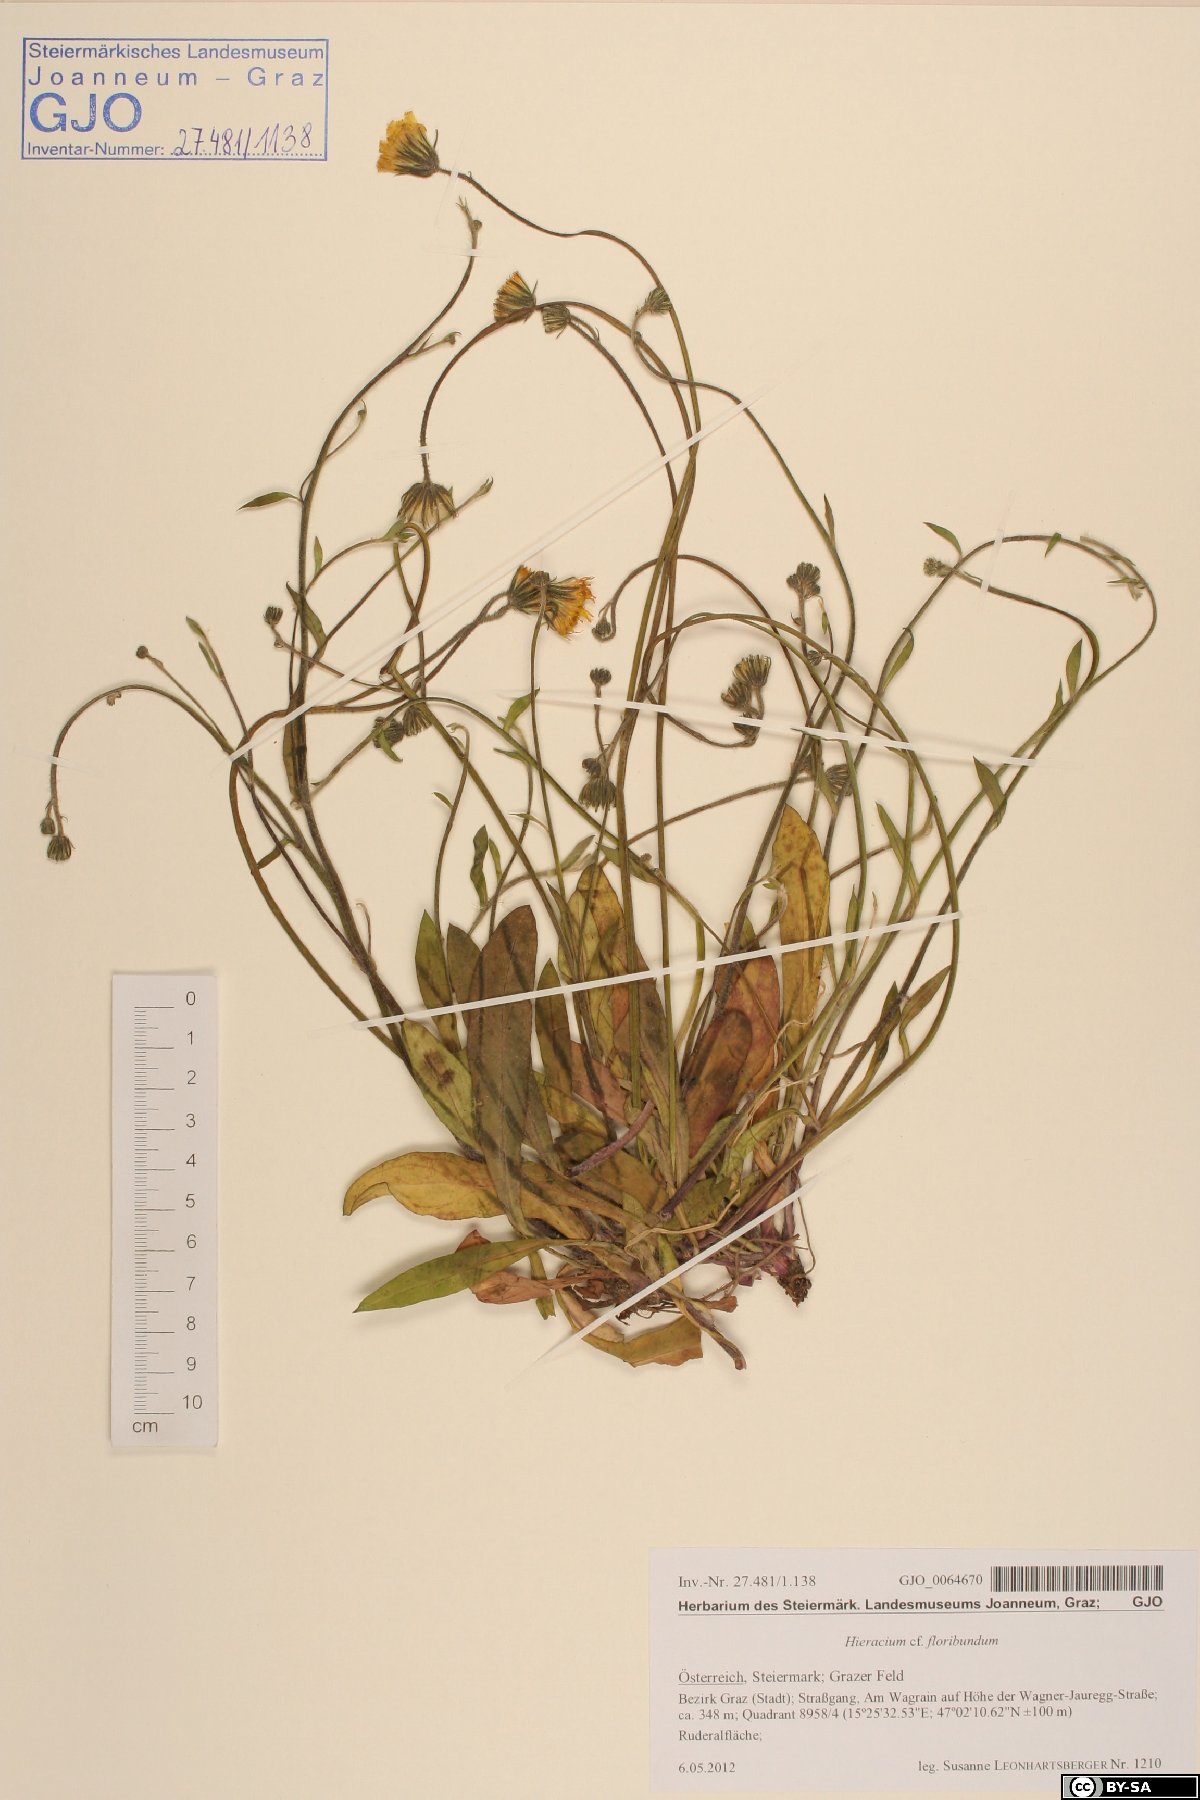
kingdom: Plantae
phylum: Tracheophyta
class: Magnoliopsida
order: Asterales
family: Asteraceae
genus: Pilosella
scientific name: Pilosella floribunda
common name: Glaucous hawkweed
